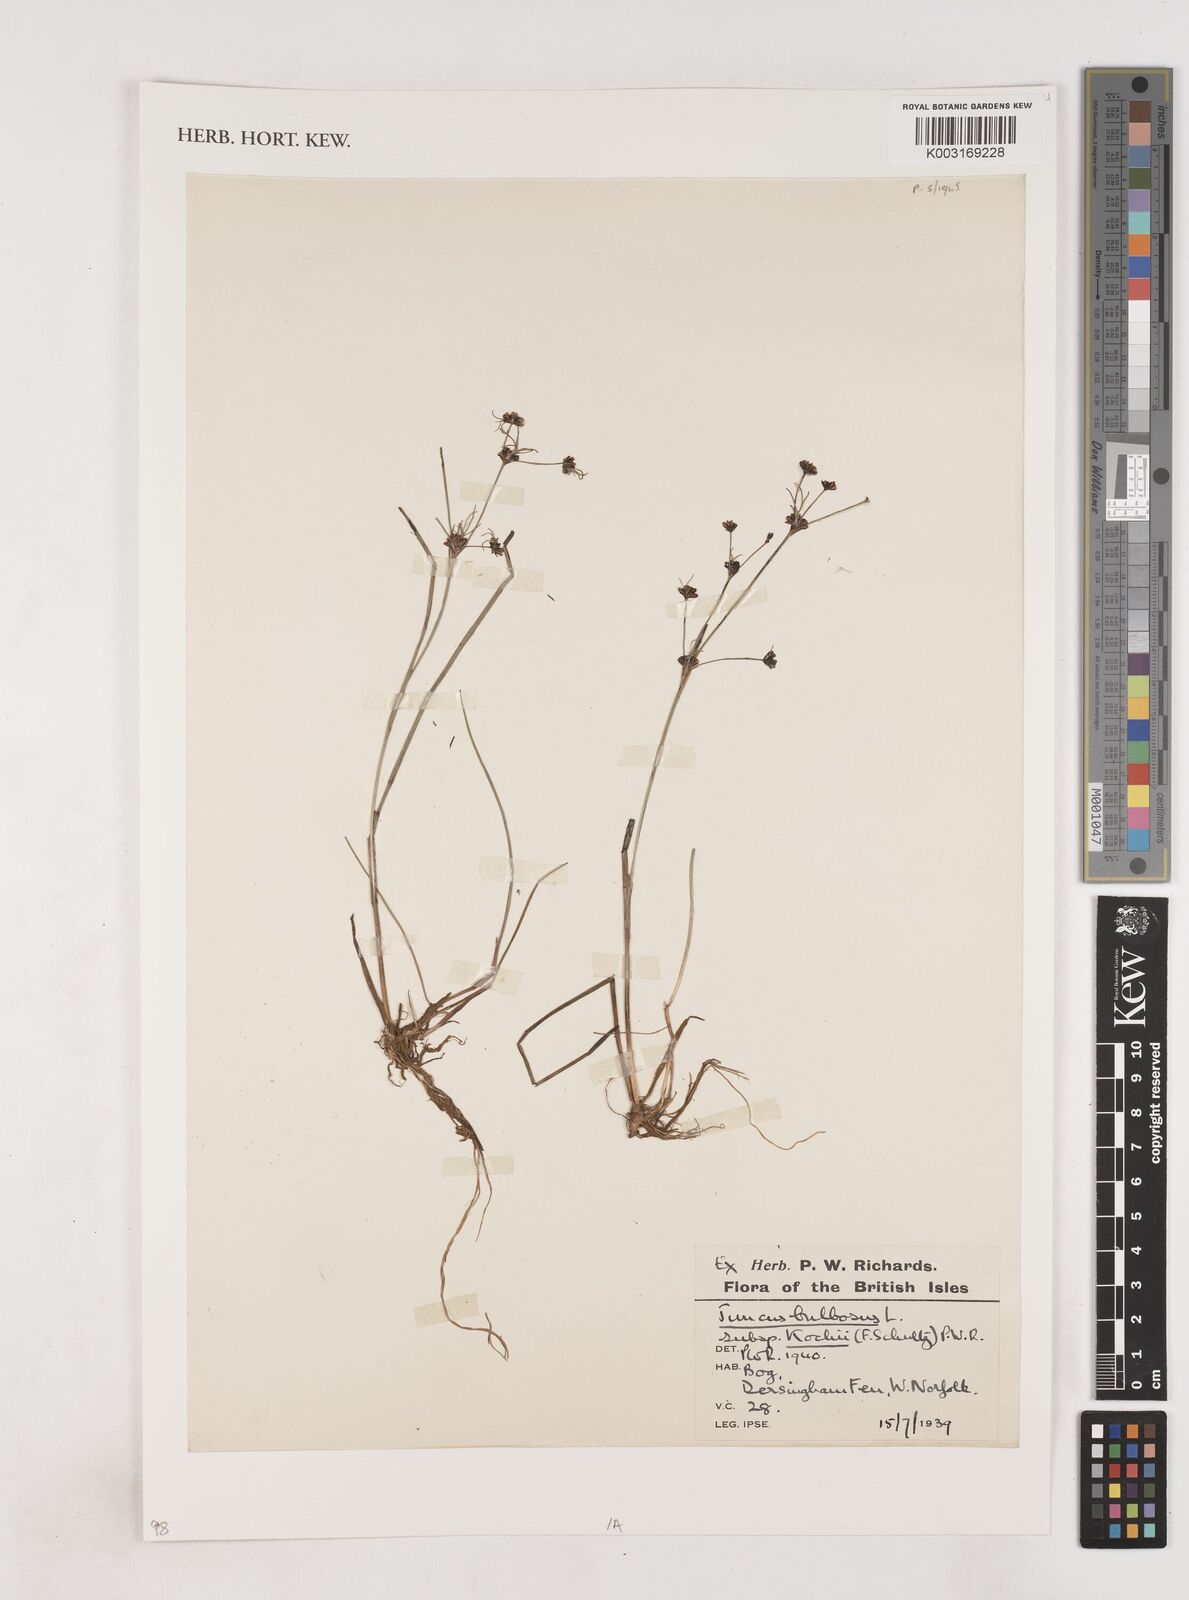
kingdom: Plantae
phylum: Tracheophyta
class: Liliopsida
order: Poales
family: Juncaceae
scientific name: Juncaceae
